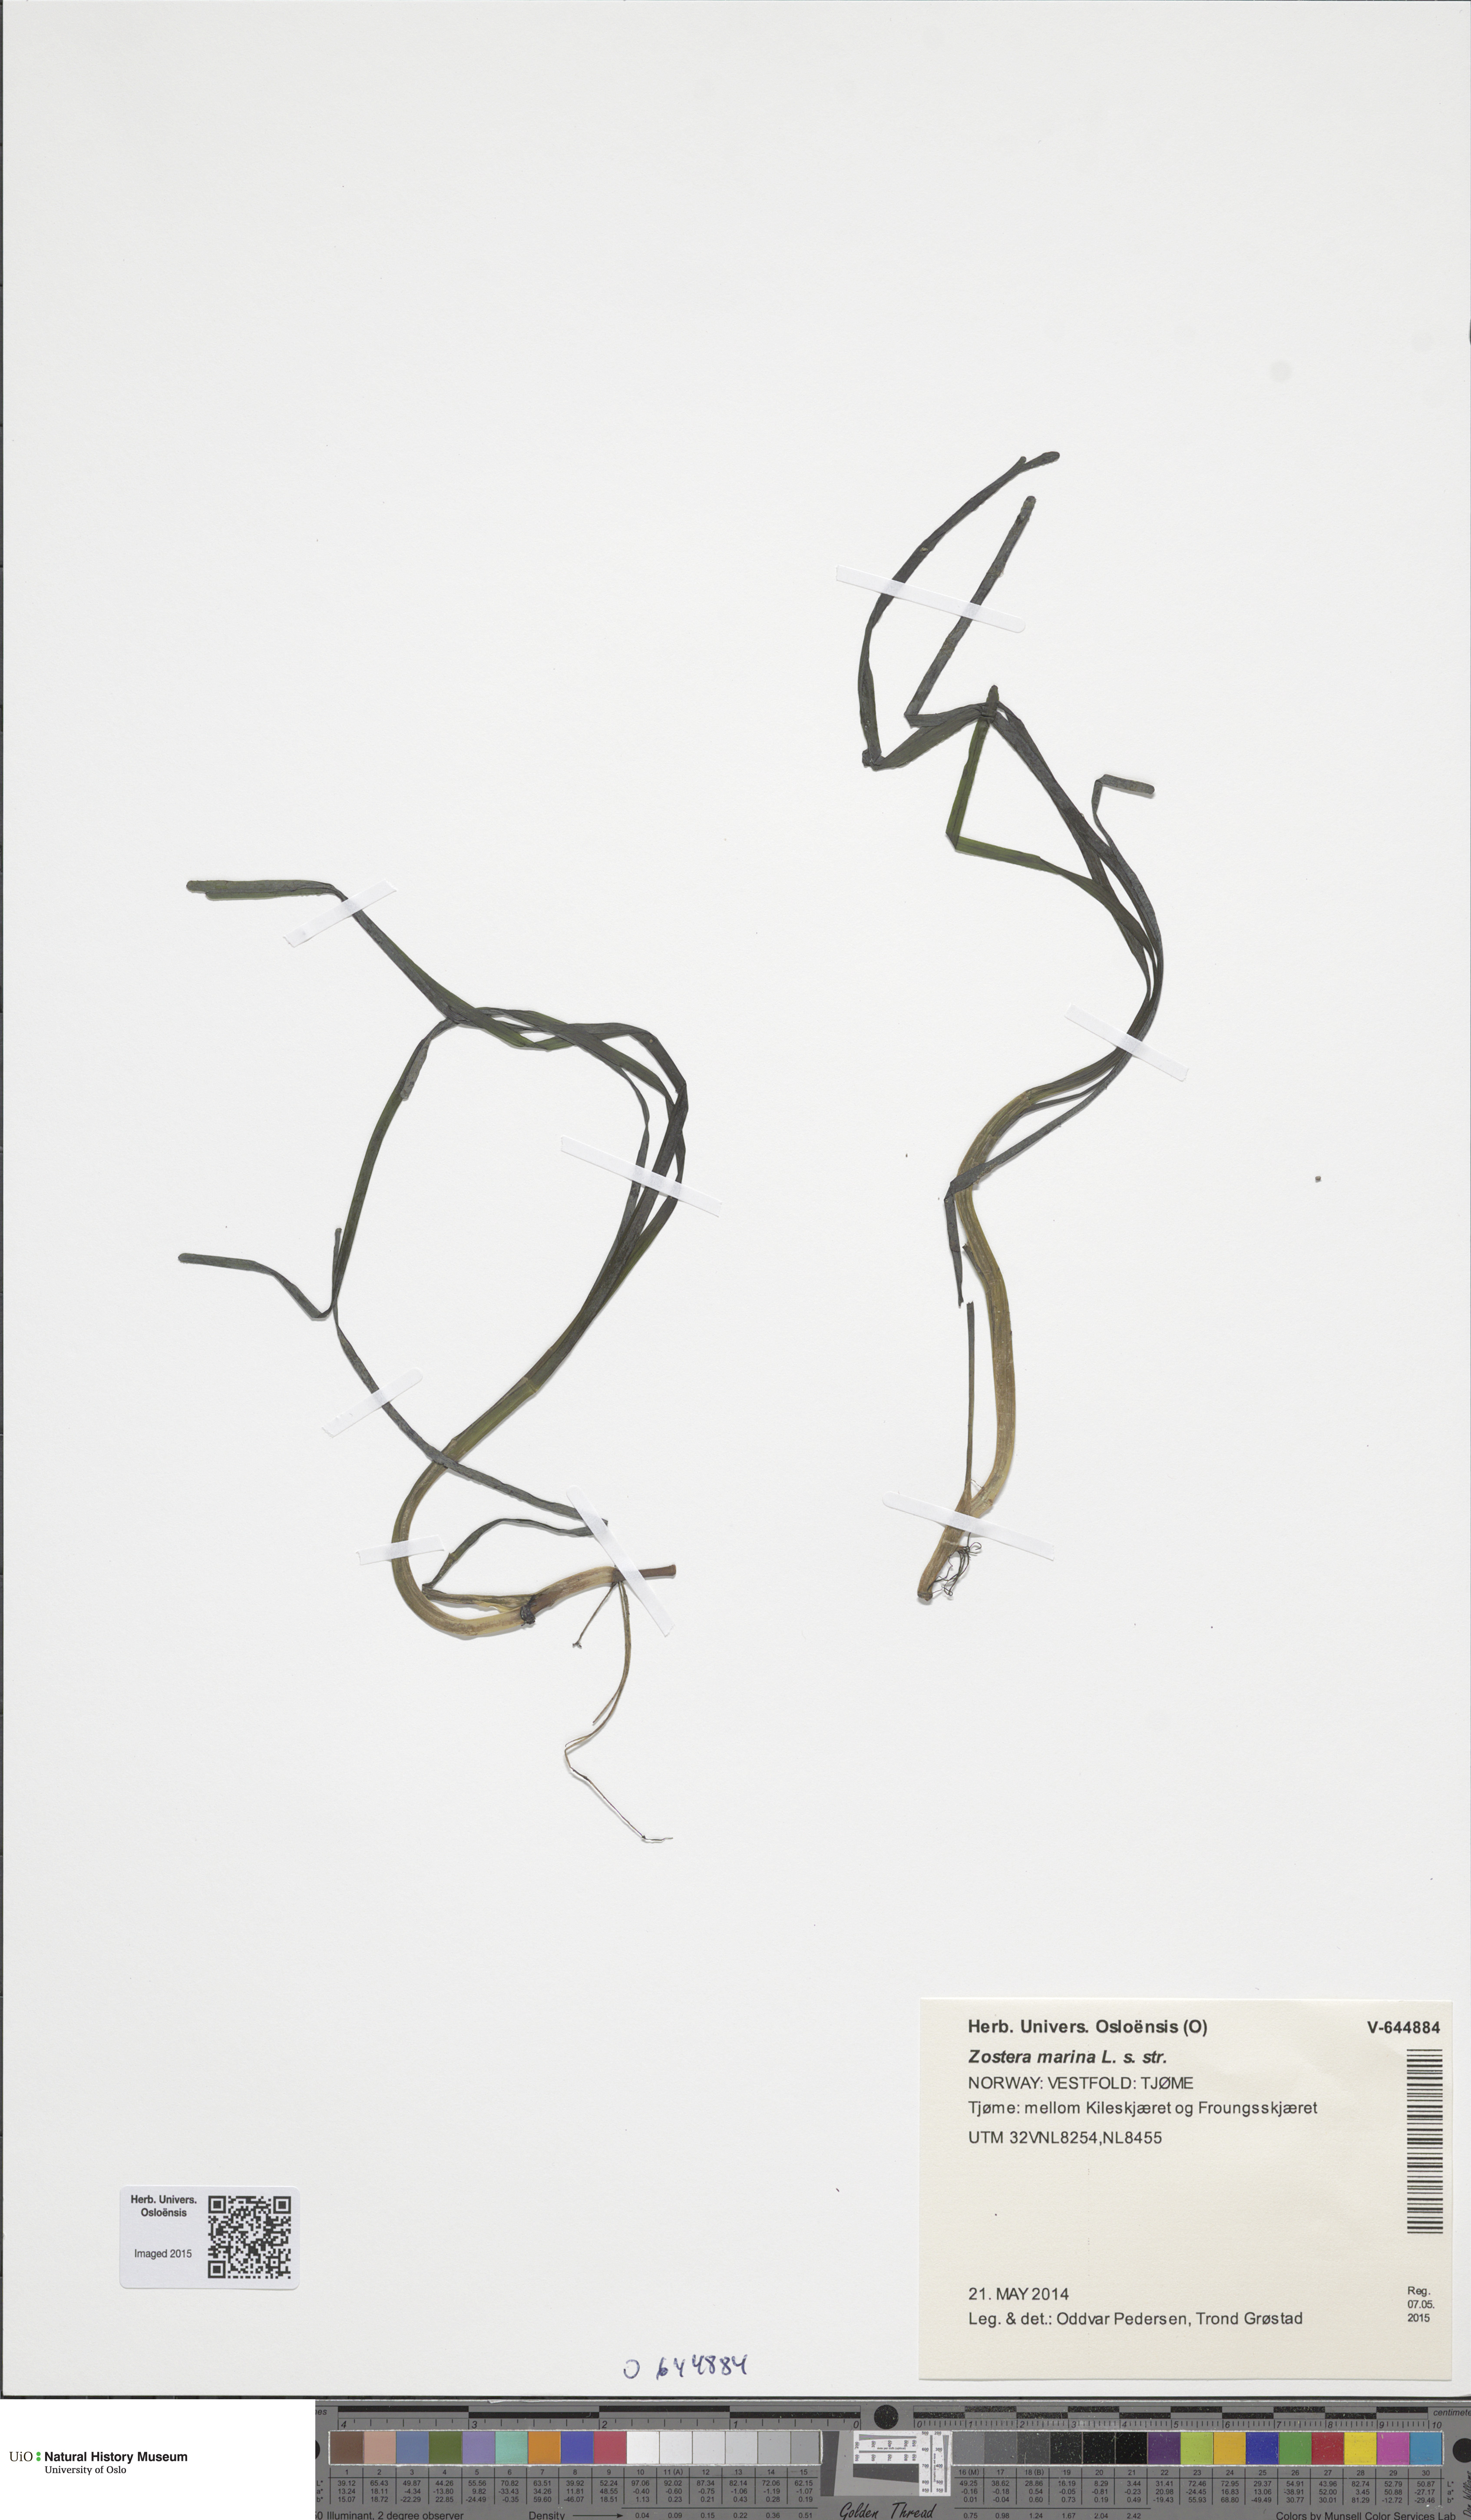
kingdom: Plantae
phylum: Tracheophyta
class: Liliopsida
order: Alismatales
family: Zosteraceae
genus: Zostera
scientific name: Zostera angustifolia
